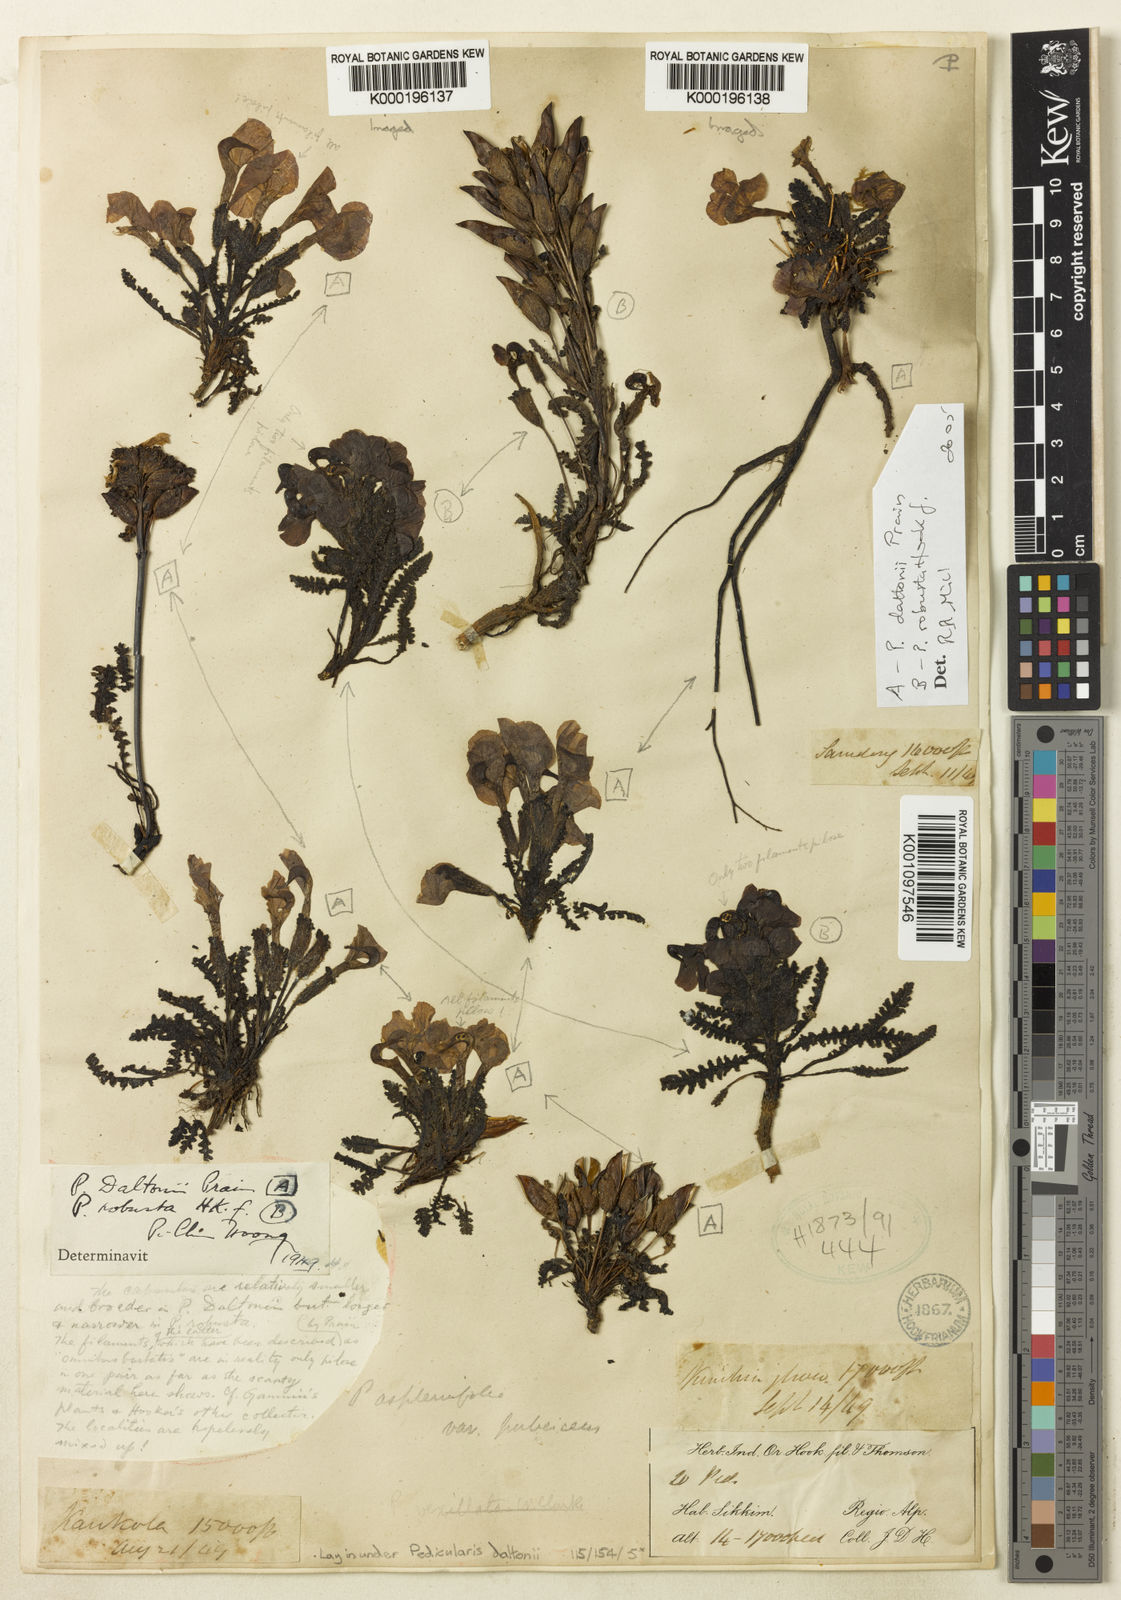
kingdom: Plantae
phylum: Tracheophyta
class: Magnoliopsida
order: Lamiales
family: Orobanchaceae
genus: Pedicularis
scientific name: Pedicularis daltonii
